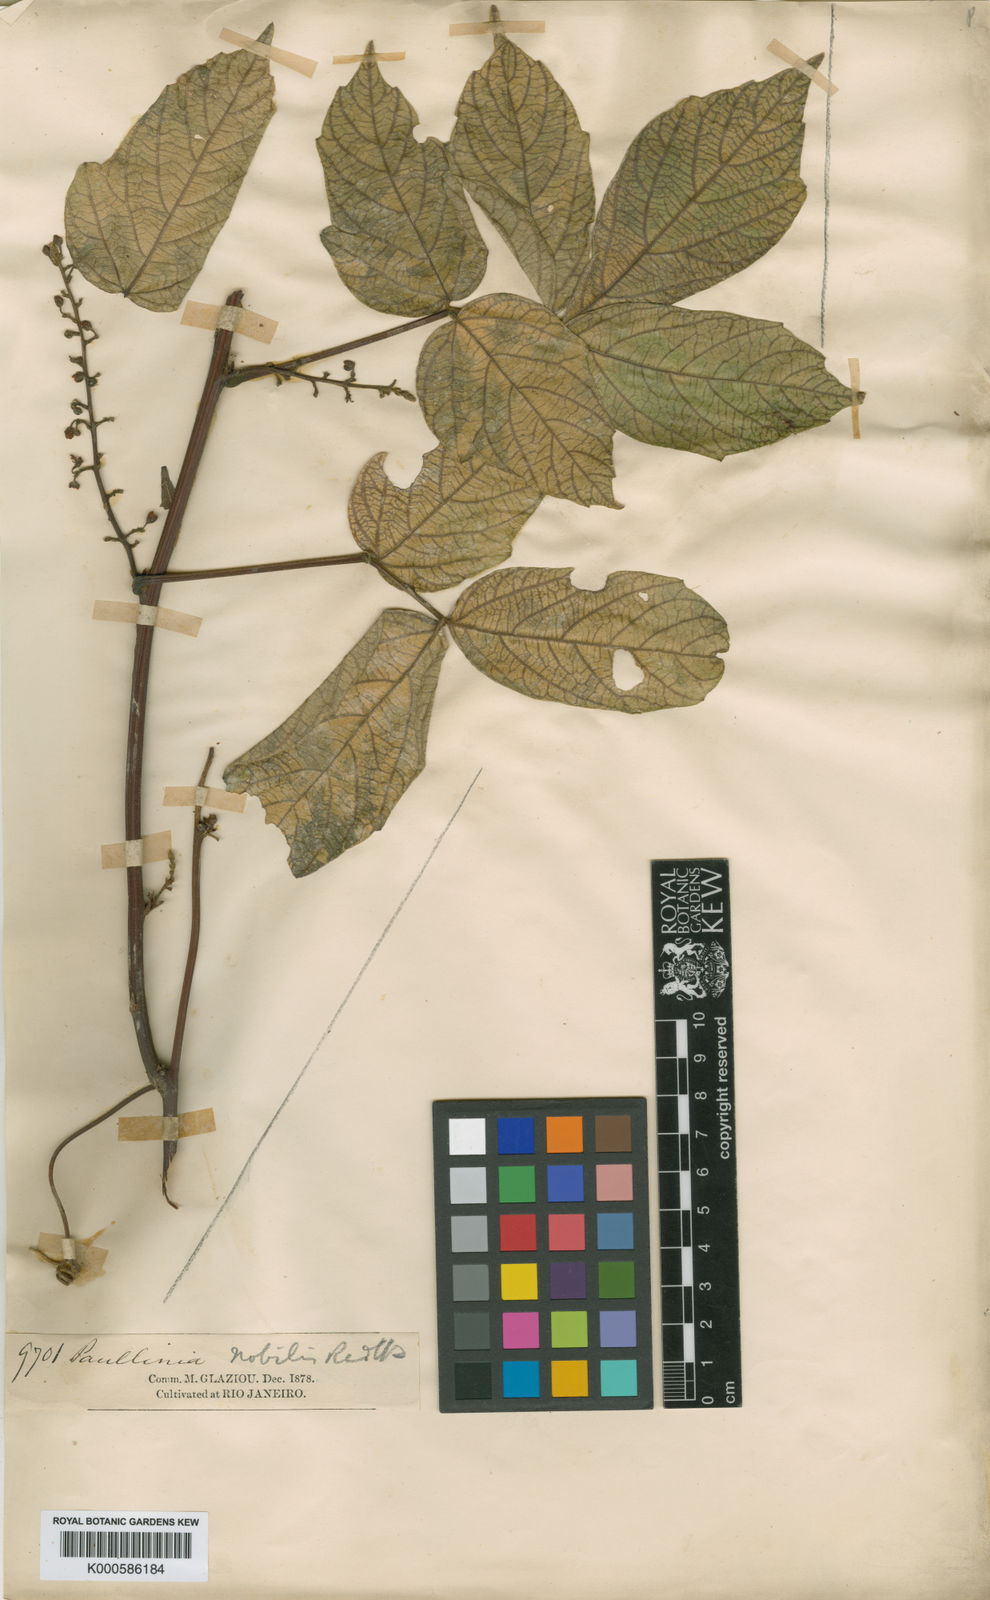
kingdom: Plantae
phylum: Tracheophyta
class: Magnoliopsida
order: Sapindales
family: Sapindaceae
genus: Paullinia
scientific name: Paullinia nobilis
